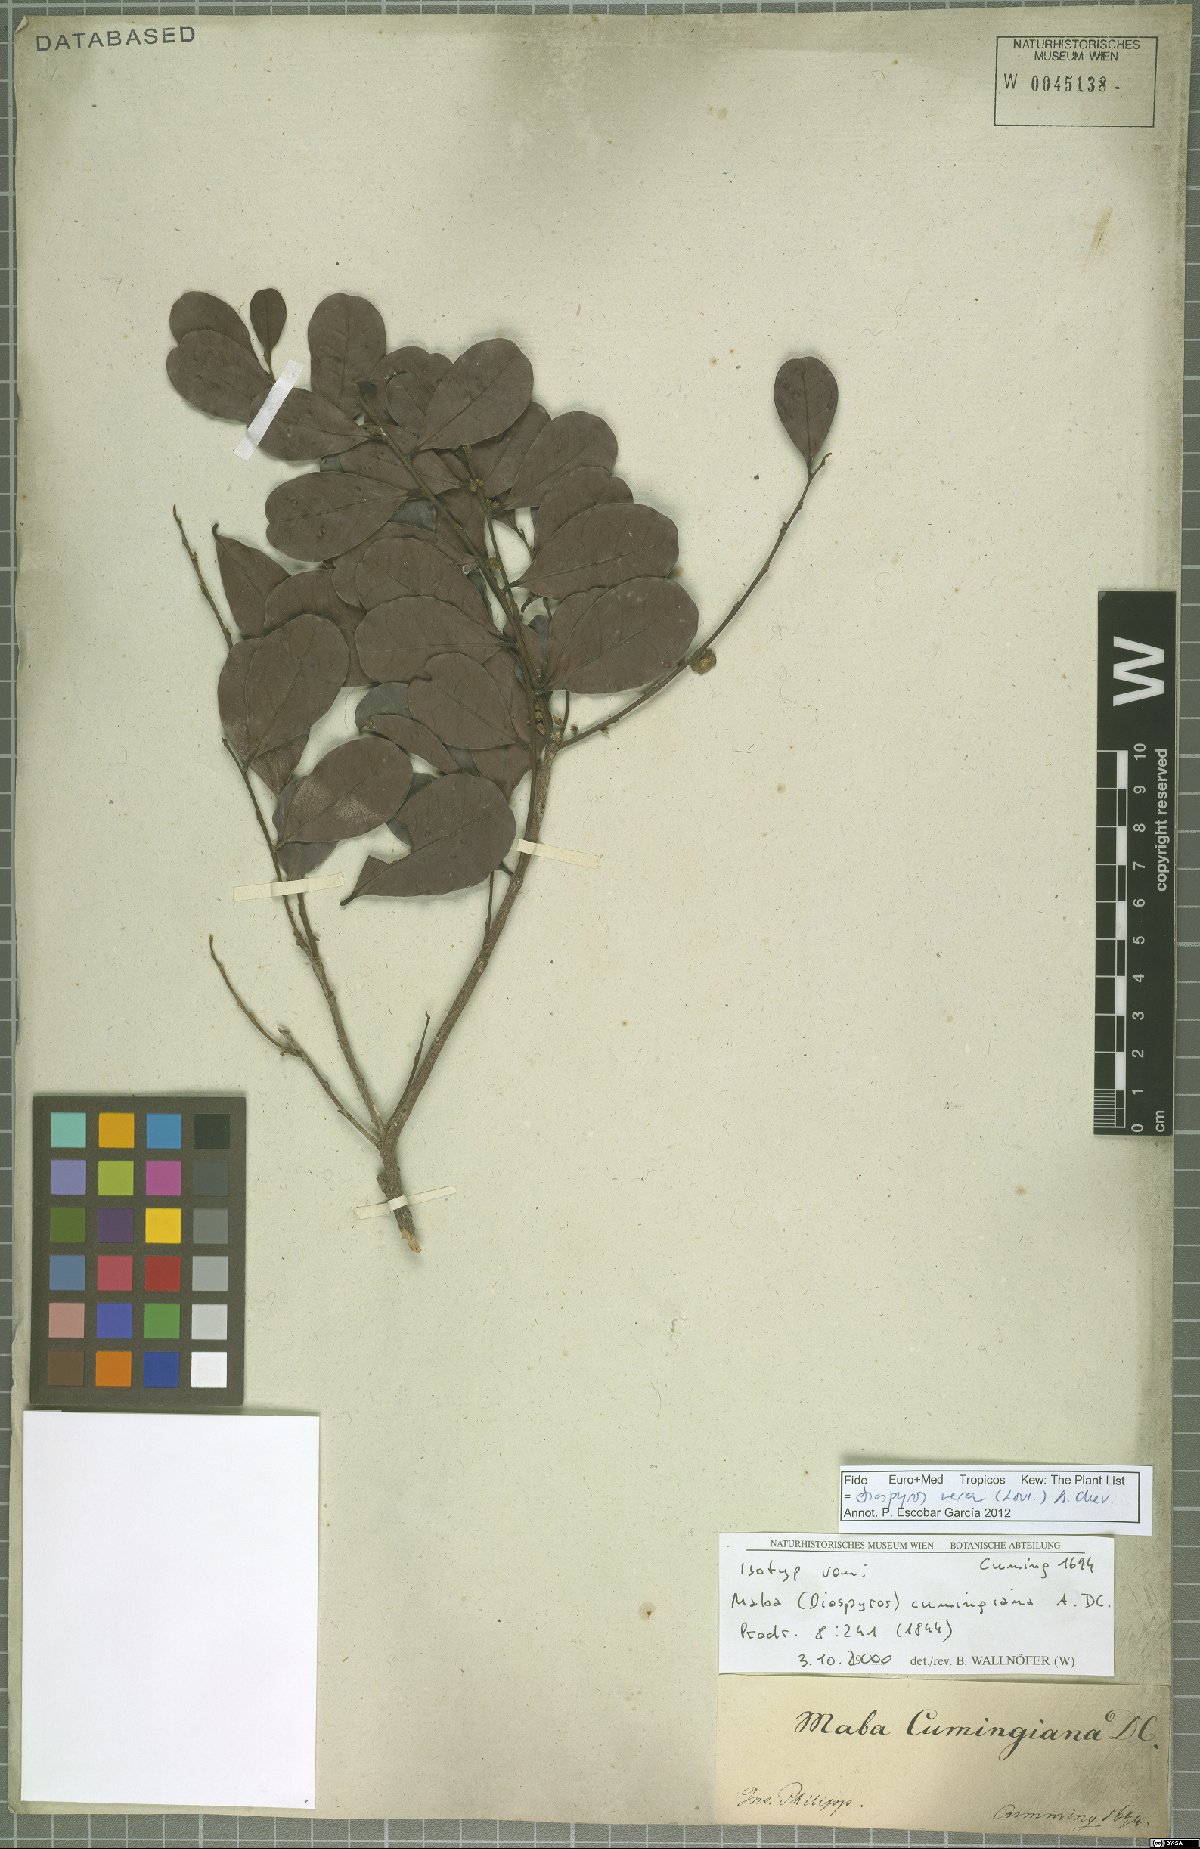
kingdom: Plantae
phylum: Tracheophyta
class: Magnoliopsida
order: Ericales
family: Ebenaceae
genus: Diospyros
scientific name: Diospyros ferrea
